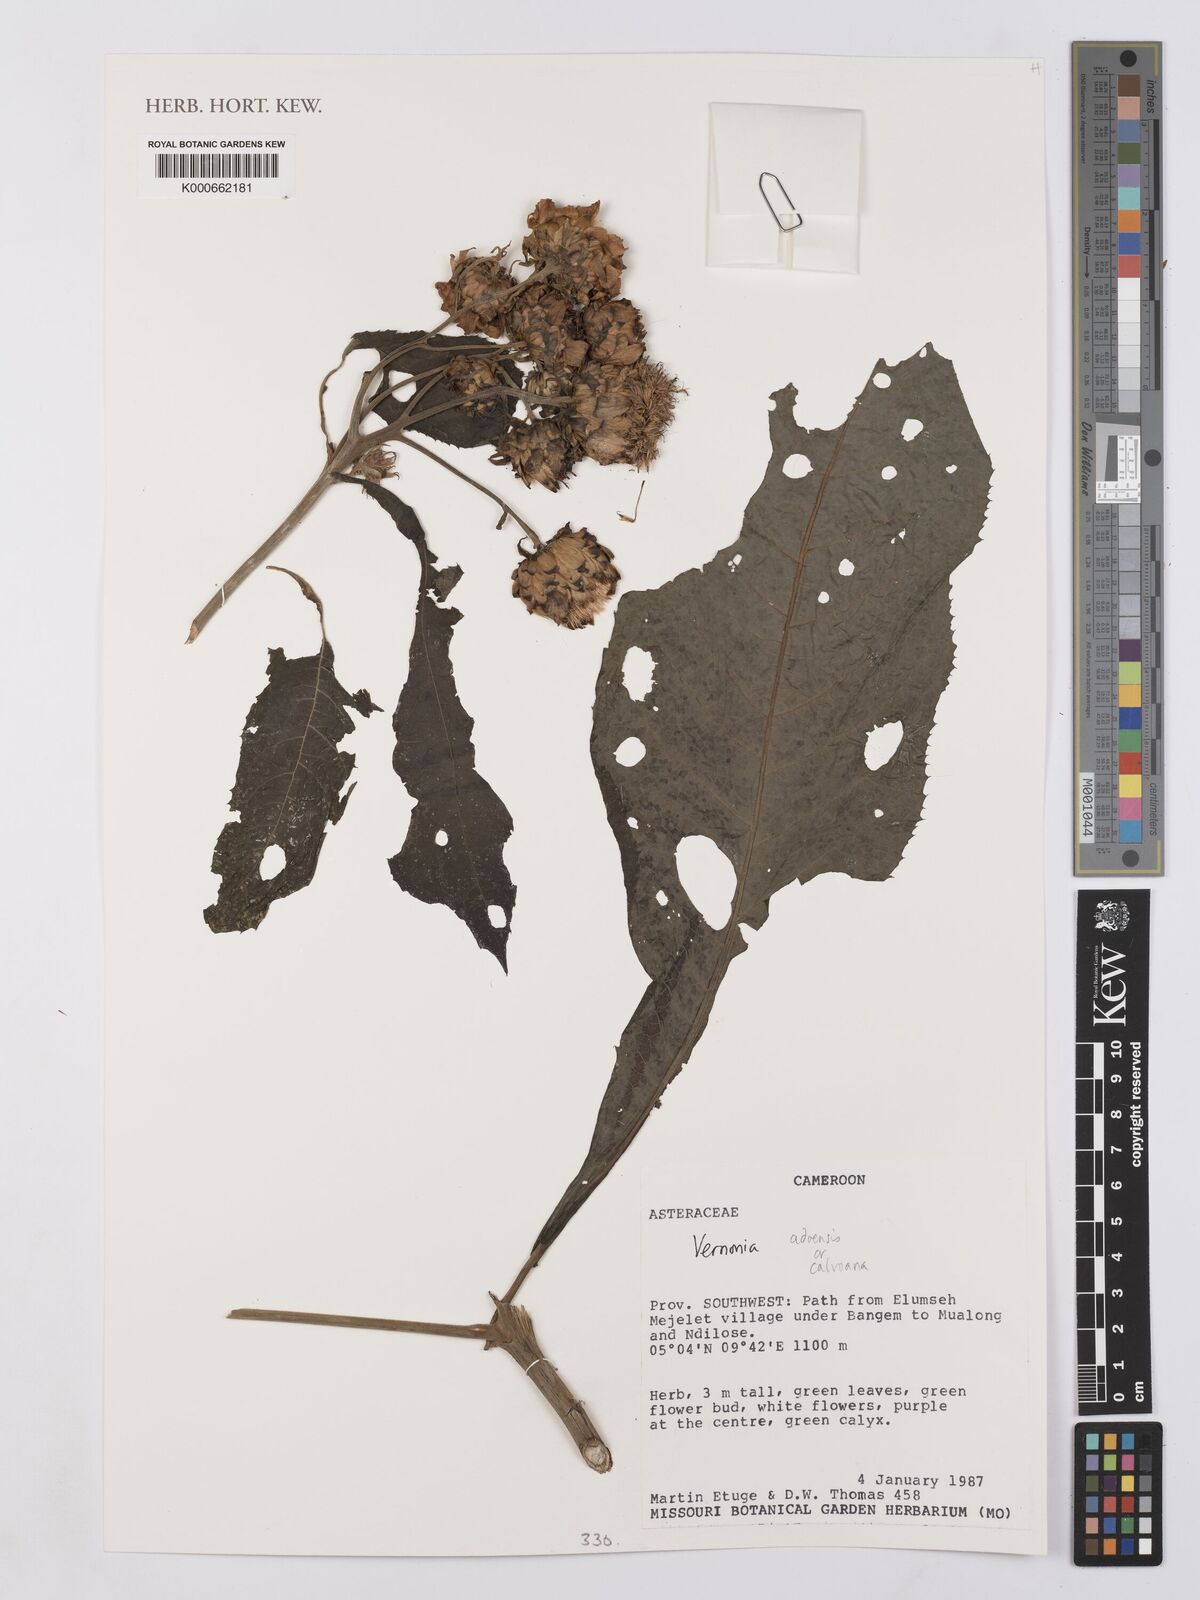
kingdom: Plantae
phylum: Tracheophyta
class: Magnoliopsida
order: Asterales
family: Asteraceae
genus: Baccharoides
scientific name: Baccharoides adoensis
